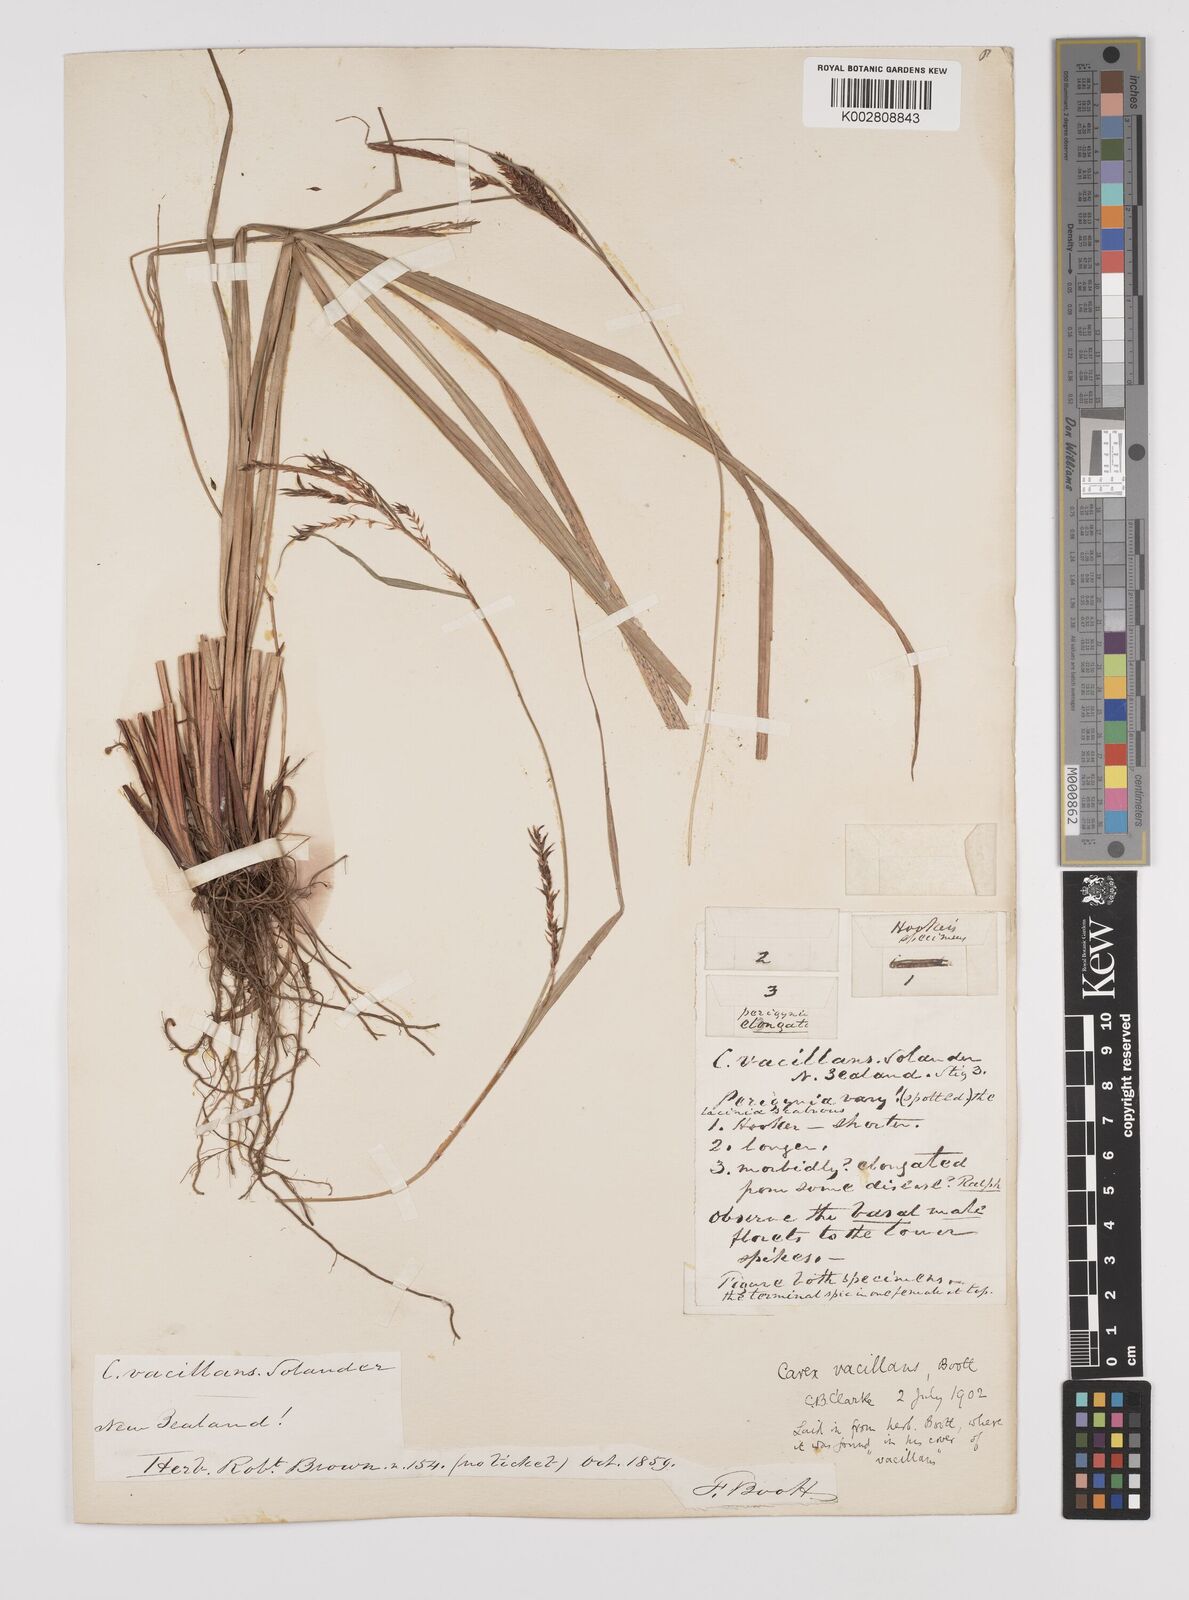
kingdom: Plantae
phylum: Tracheophyta
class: Liliopsida
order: Poales
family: Cyperaceae
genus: Carex
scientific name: Carex spinirostris
